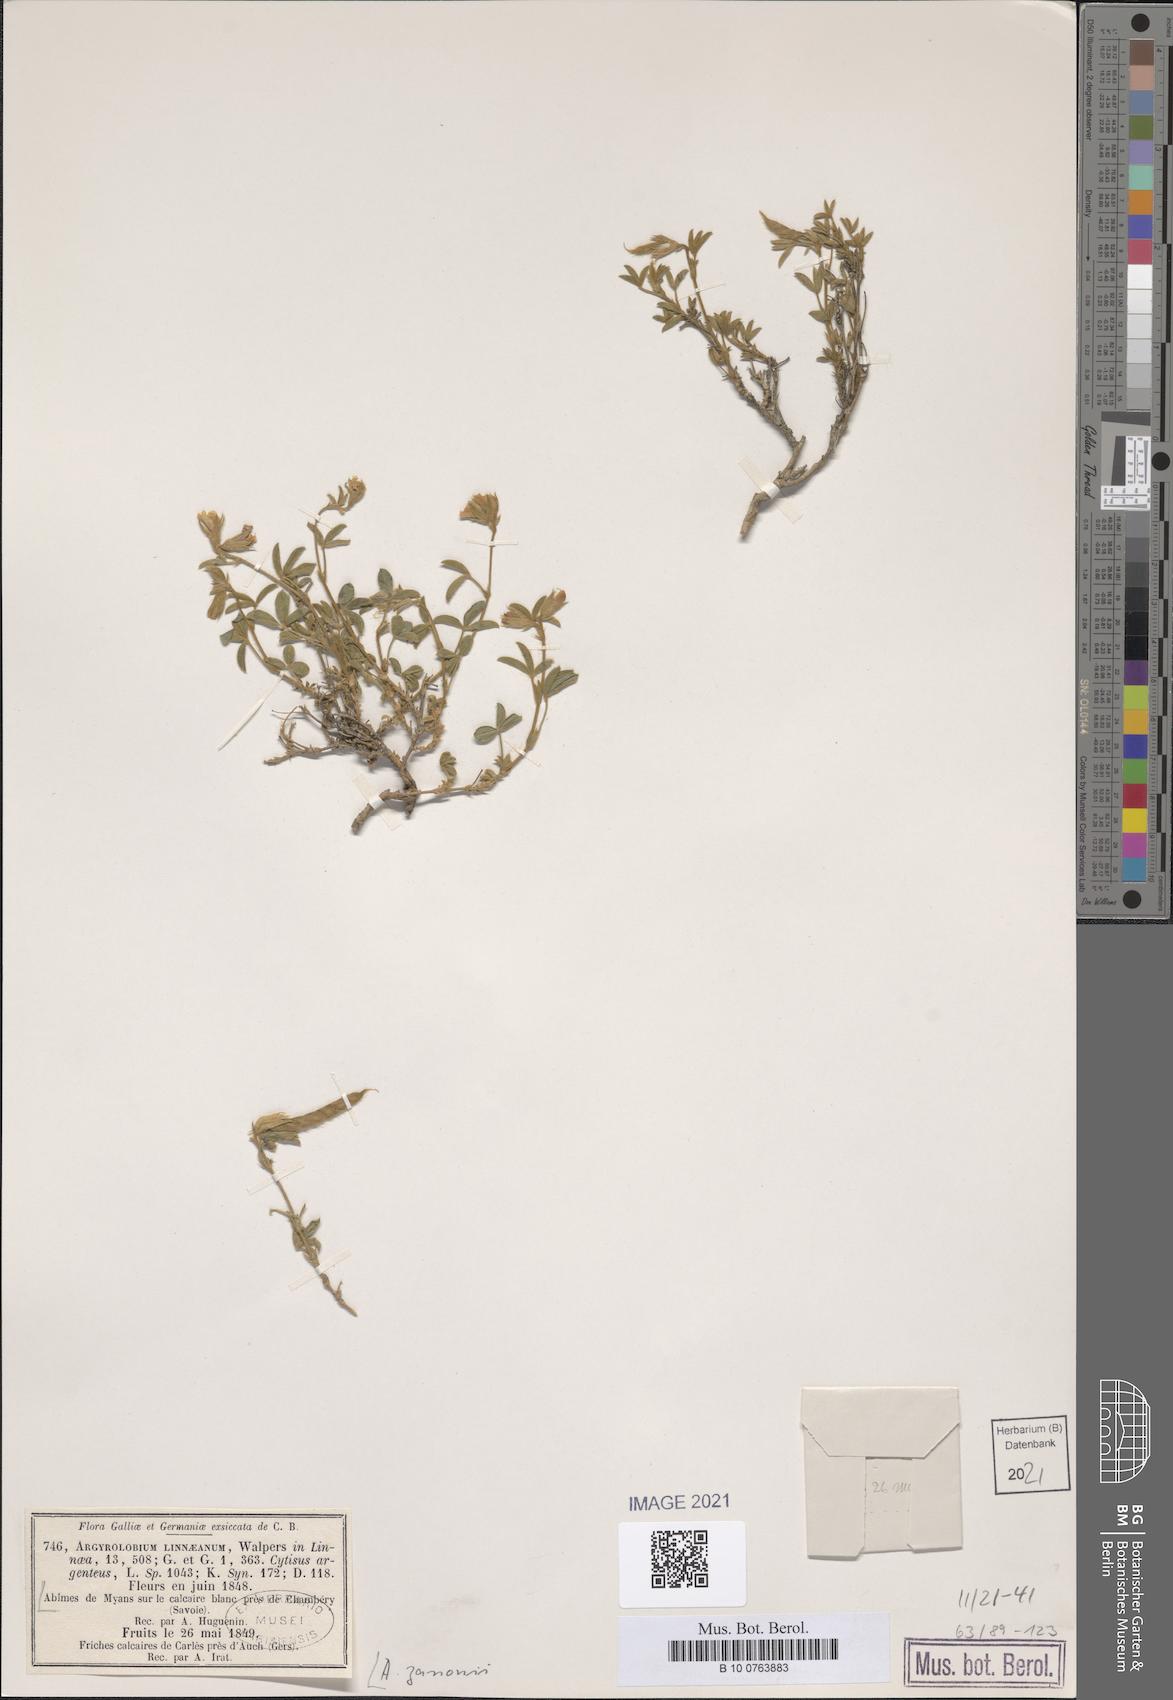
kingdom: Plantae
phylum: Tracheophyta
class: Magnoliopsida
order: Fabales
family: Fabaceae
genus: Argyrolobium
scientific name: Argyrolobium zanonii
